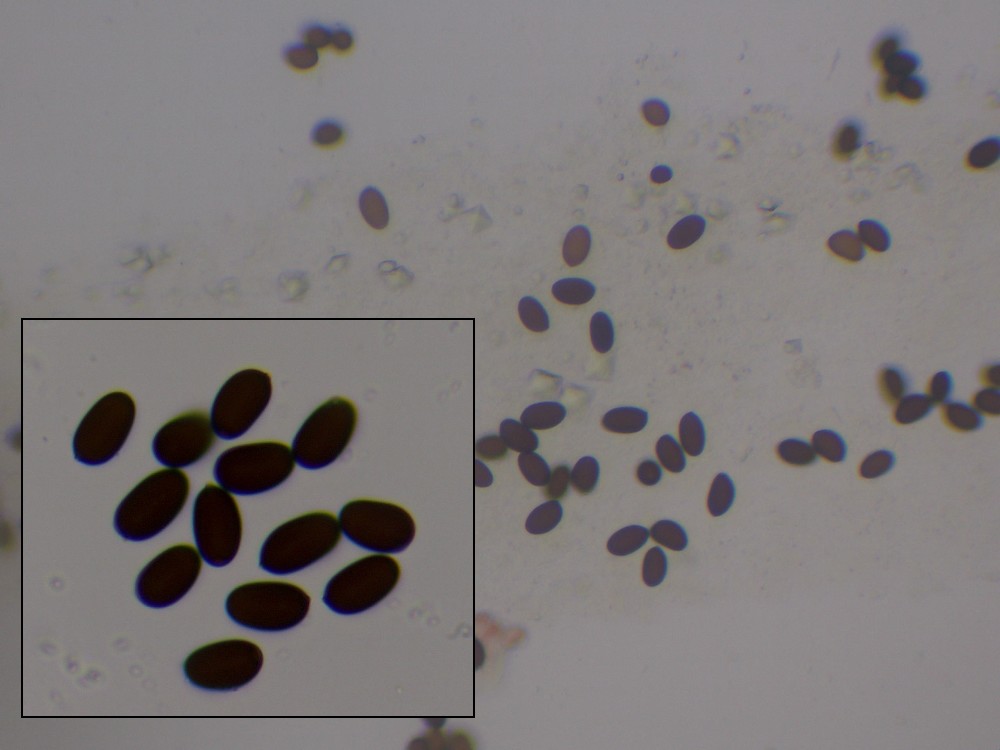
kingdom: Fungi
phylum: Basidiomycota
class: Agaricomycetes
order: Agaricales
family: Psathyrellaceae
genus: Coprinopsis
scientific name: Coprinopsis radiata
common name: lille gødnings-blækhat
